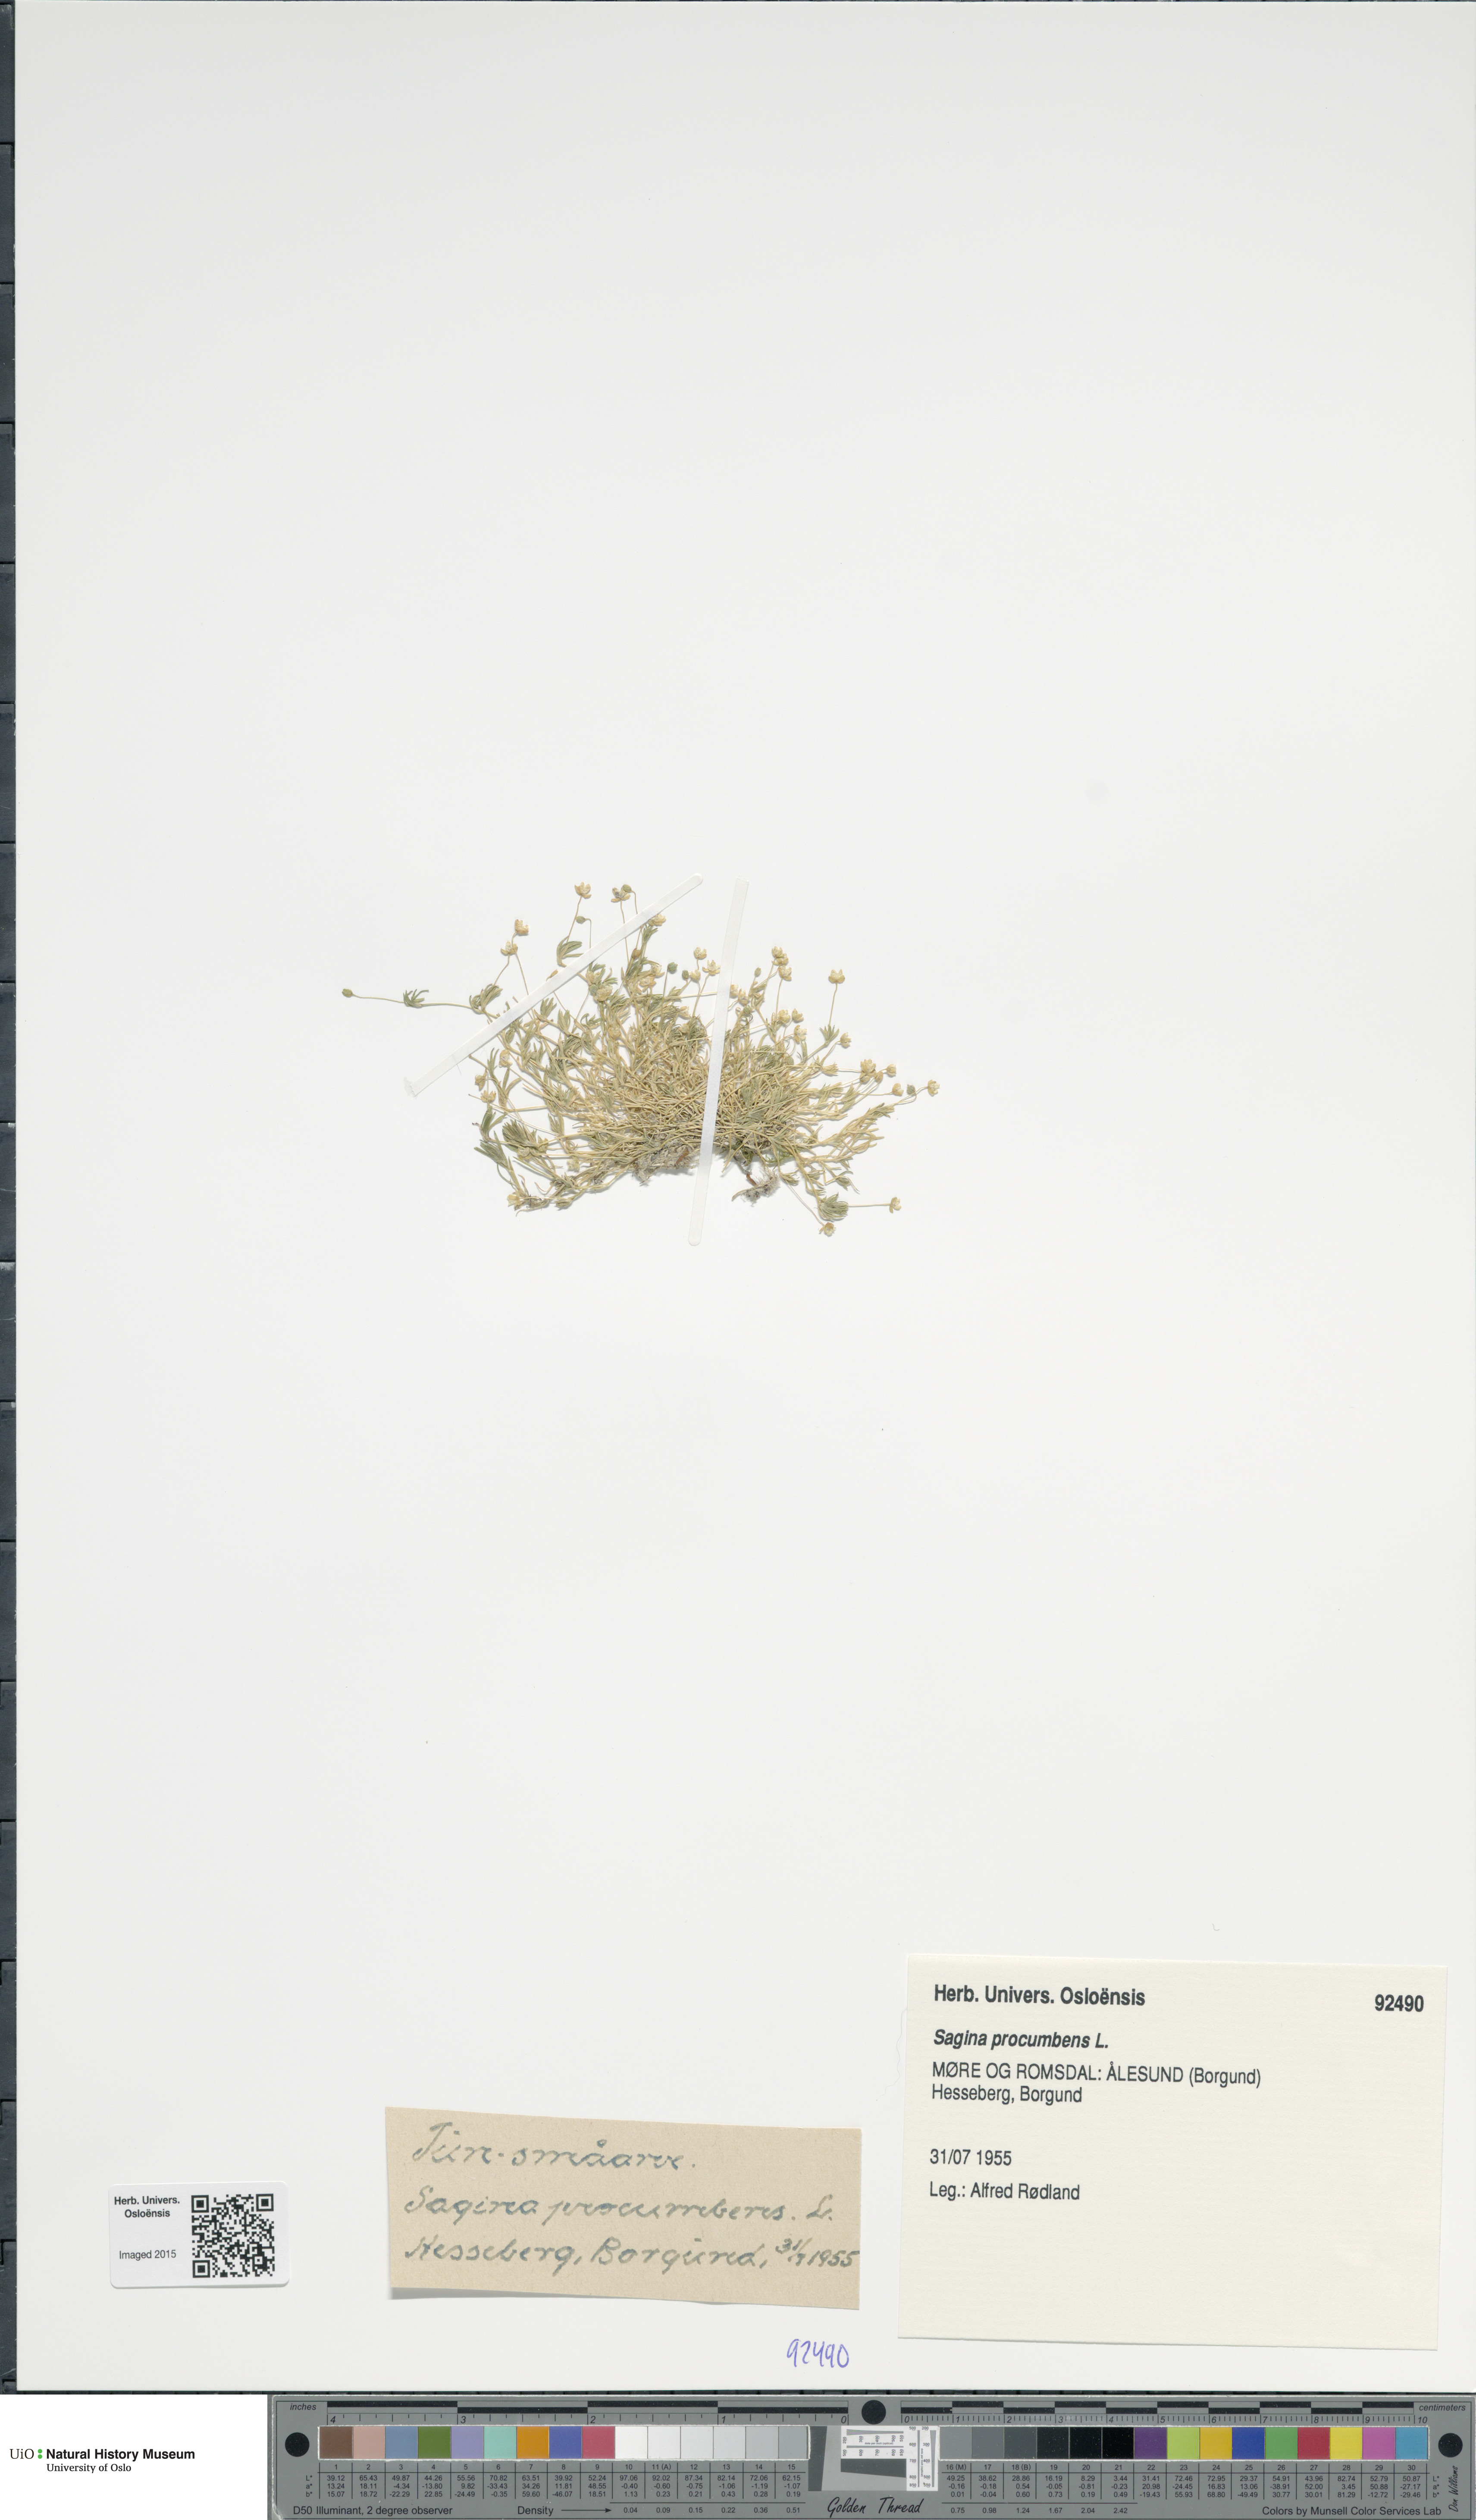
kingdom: Plantae
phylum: Tracheophyta
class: Magnoliopsida
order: Caryophyllales
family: Caryophyllaceae
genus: Sagina
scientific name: Sagina procumbens
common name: Procumbent pearlwort
